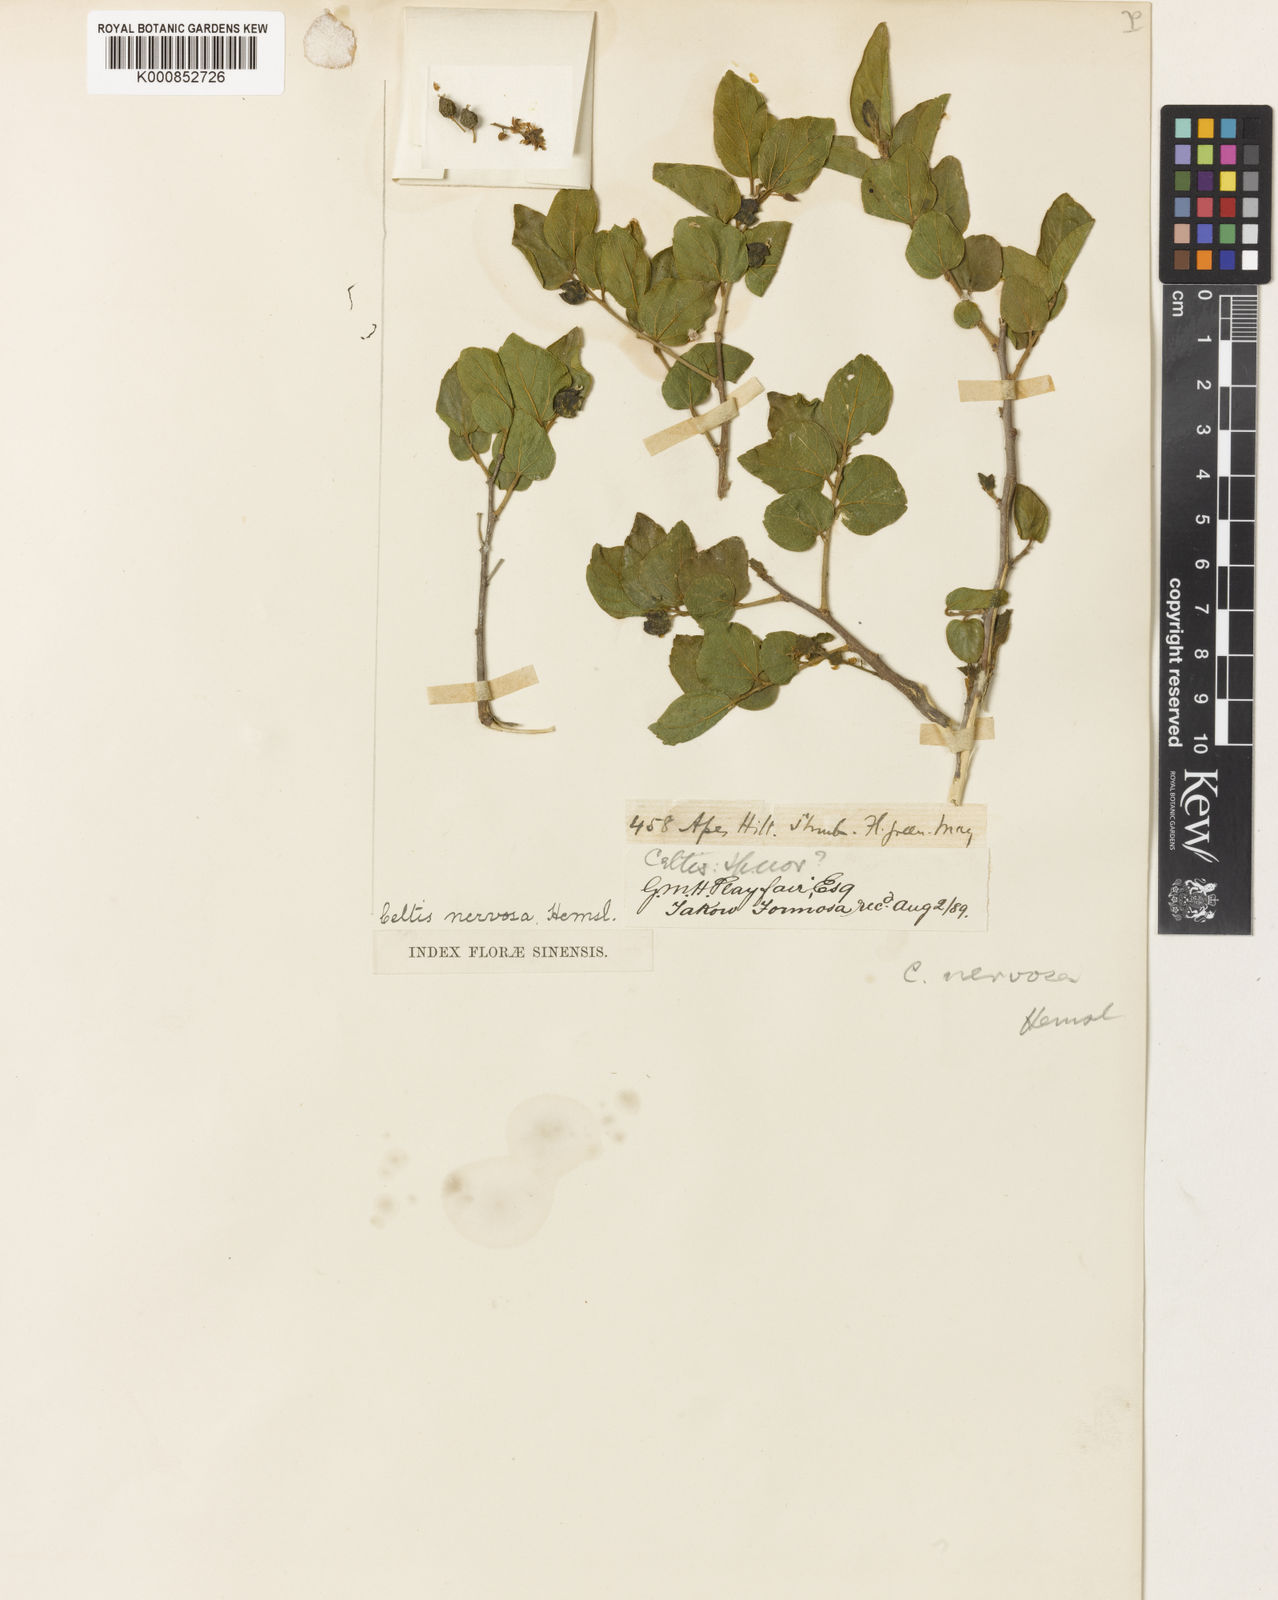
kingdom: Plantae
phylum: Tracheophyta
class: Magnoliopsida
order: Rosales
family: Cannabaceae
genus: Celtis
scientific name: Celtis sinensis
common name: Chinese hackberry
